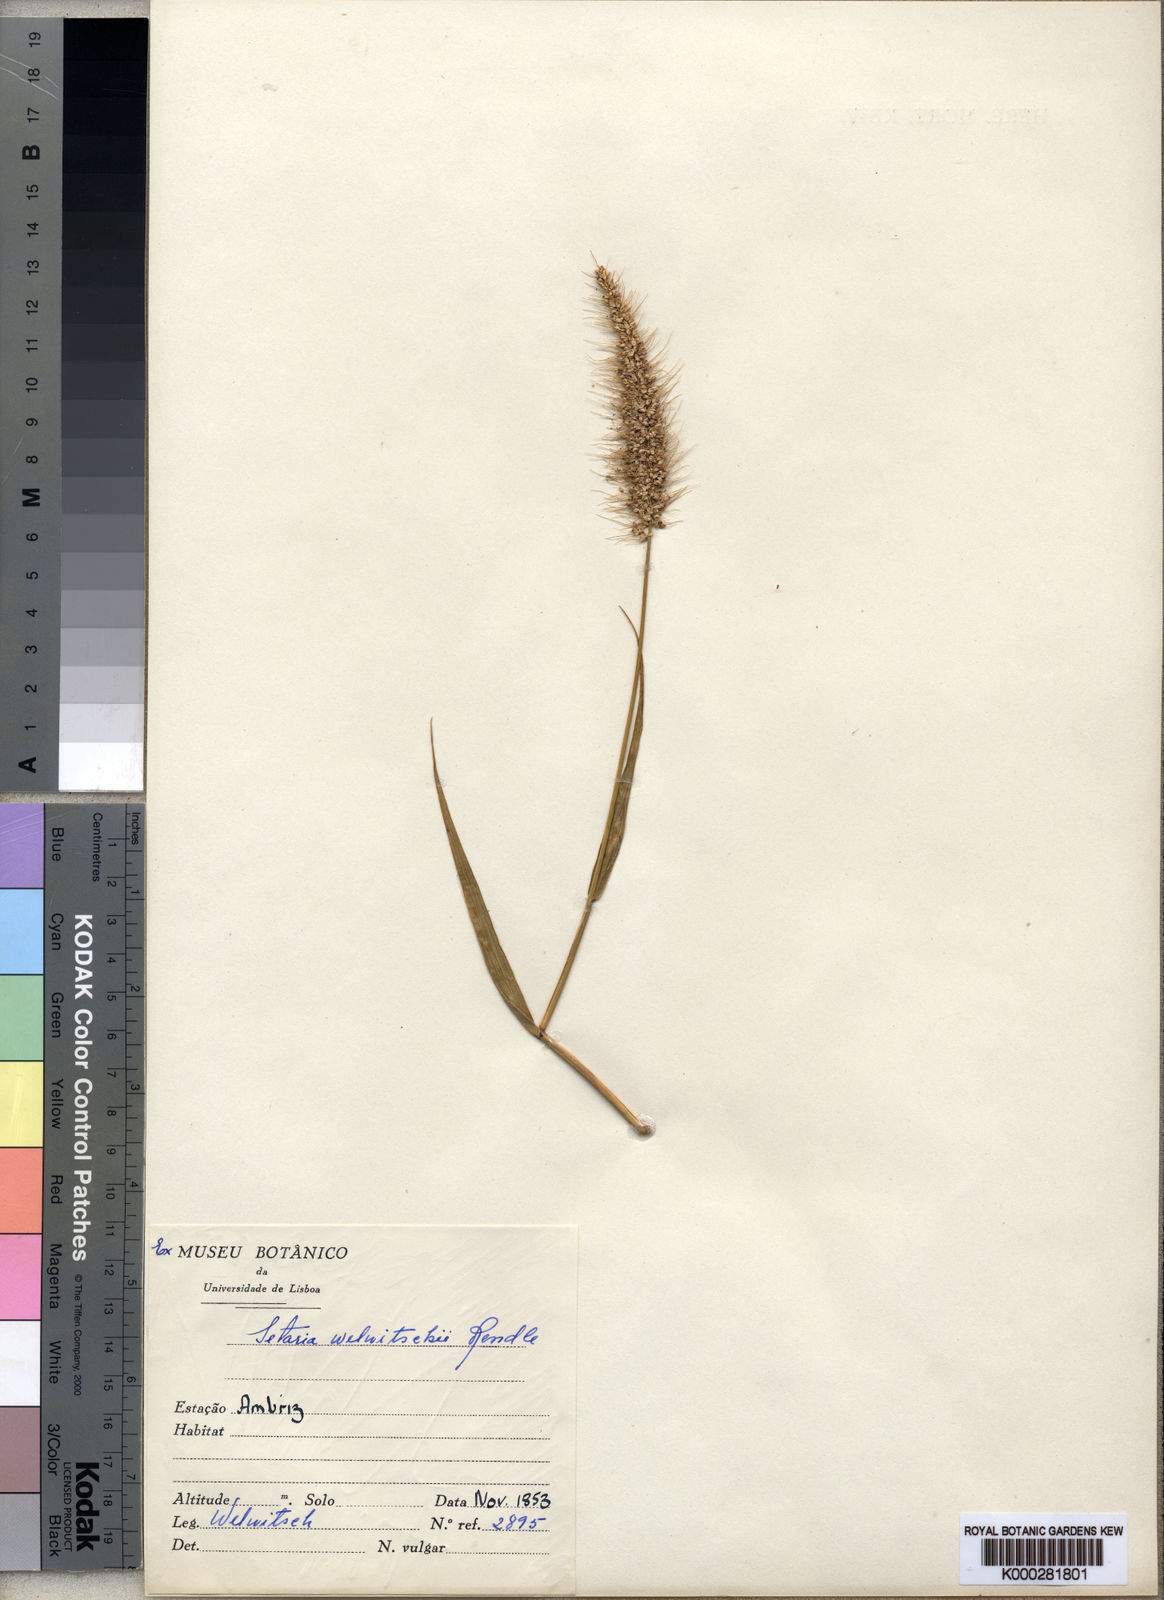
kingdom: Plantae
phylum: Tracheophyta
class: Liliopsida
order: Poales
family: Poaceae
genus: Setaria
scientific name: Setaria welwitschii
